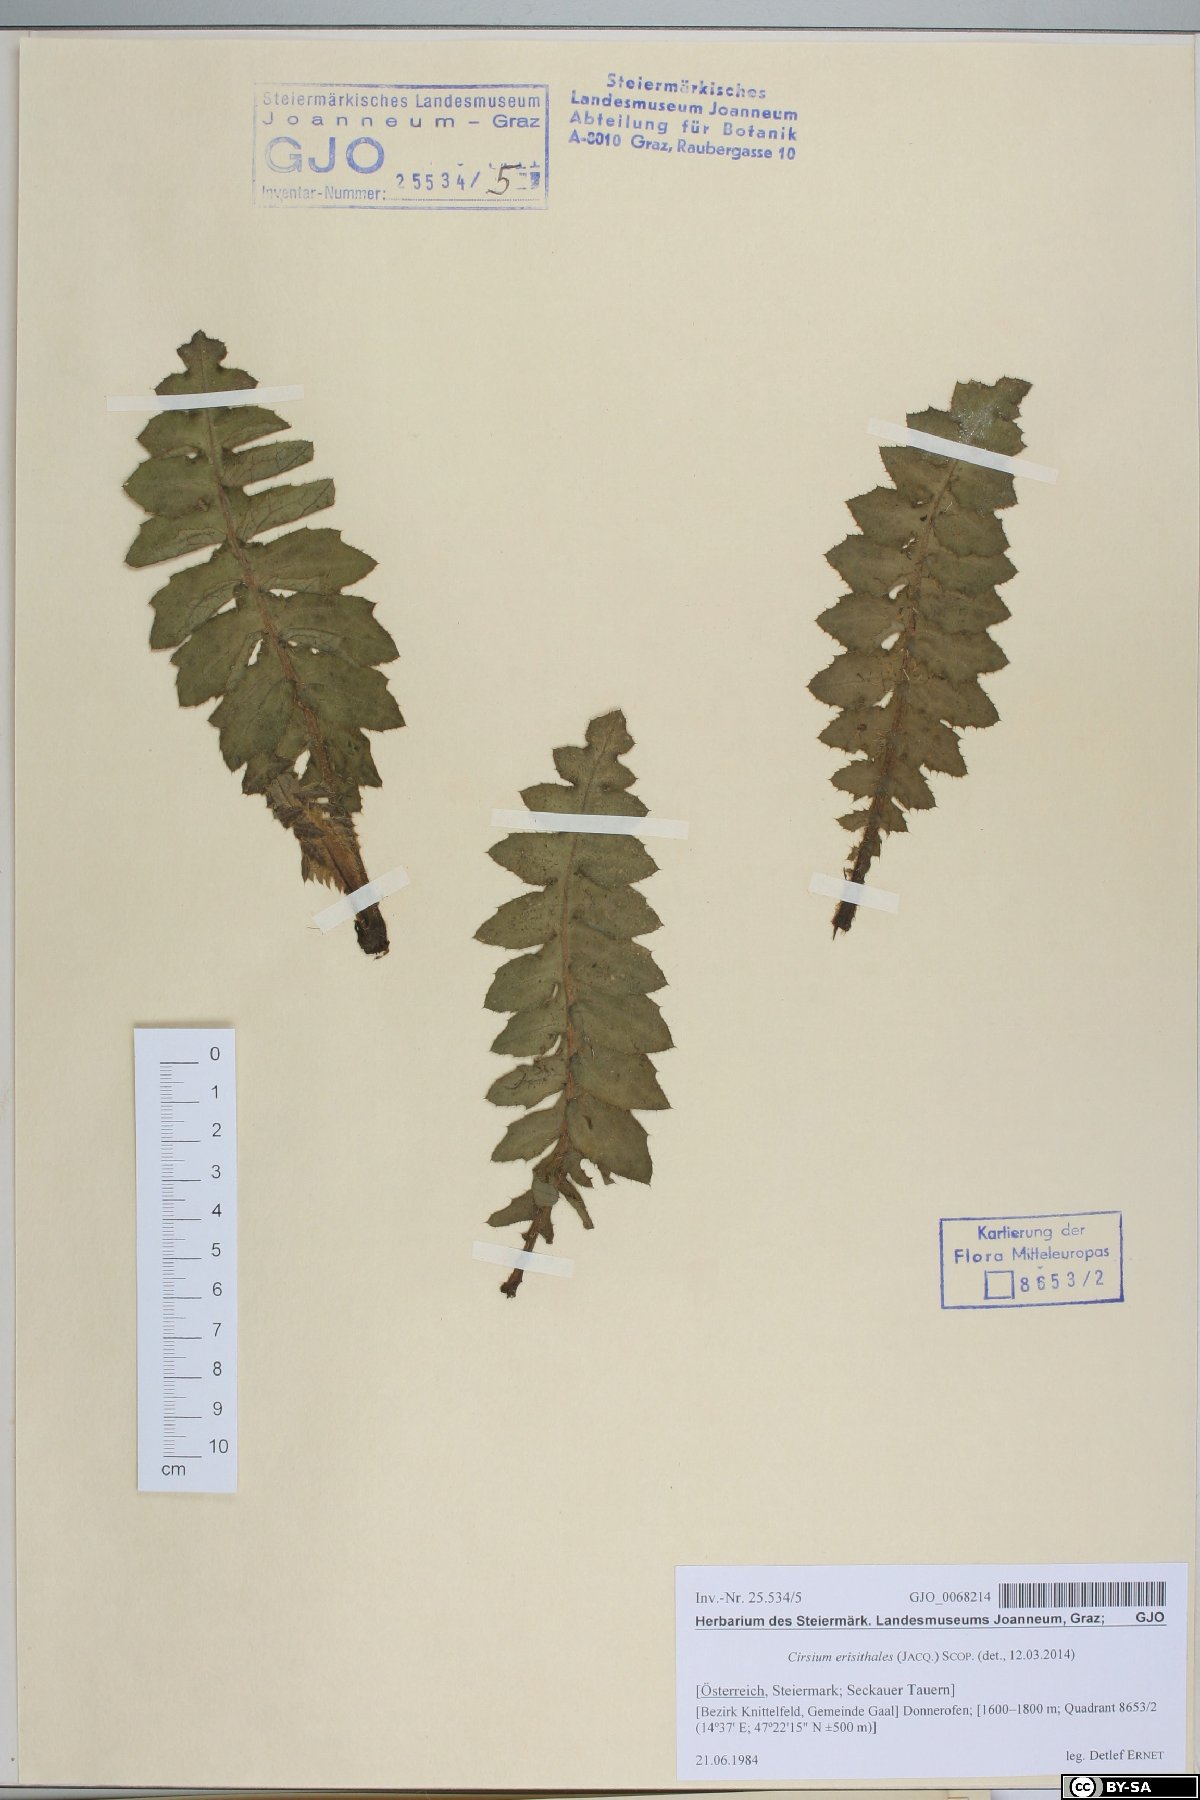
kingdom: Plantae
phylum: Tracheophyta
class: Magnoliopsida
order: Asterales
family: Asteraceae
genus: Cirsium
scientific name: Cirsium erisithales
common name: Yellow thistle
